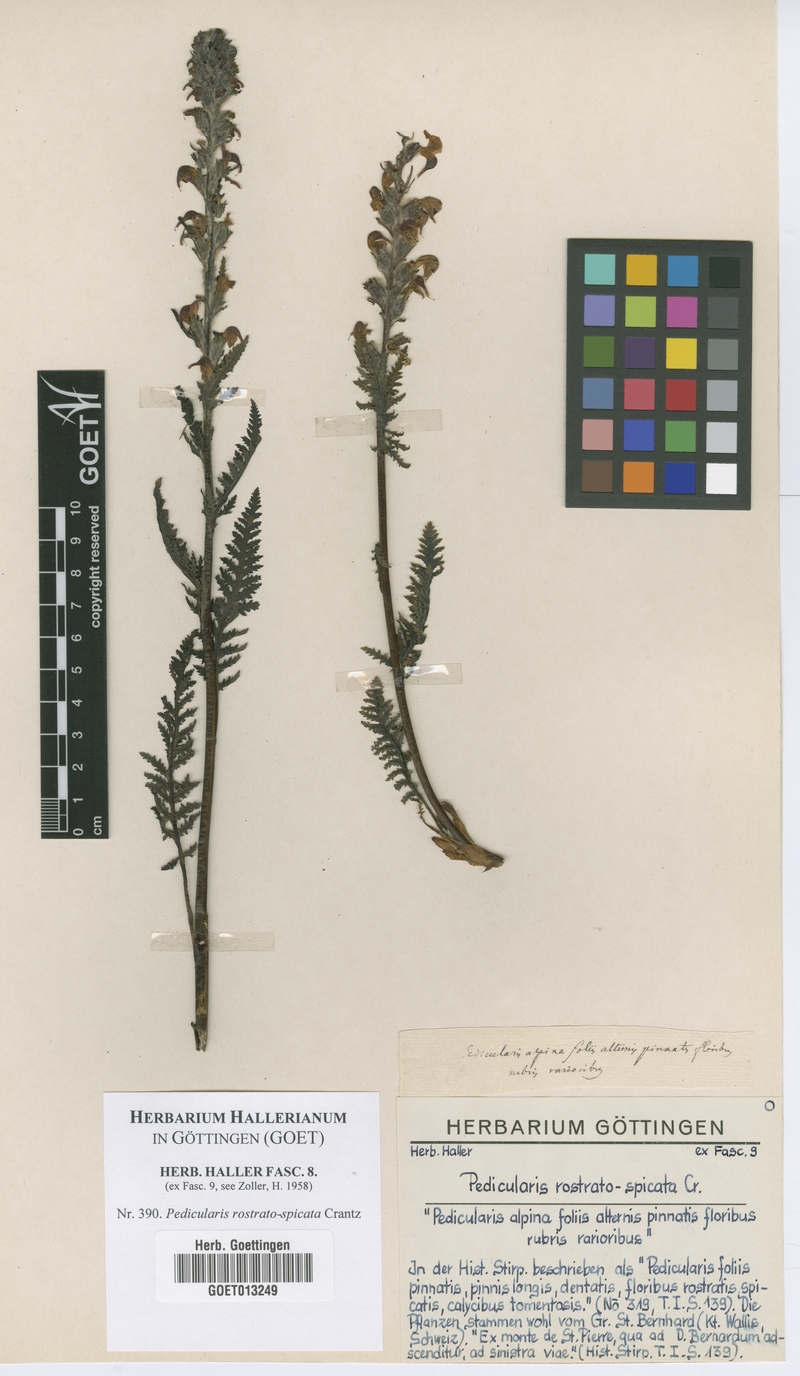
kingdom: Plantae
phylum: Tracheophyta
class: Magnoliopsida
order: Lamiales
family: Orobanchaceae
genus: Pedicularis
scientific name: Pedicularis rostratospicata
